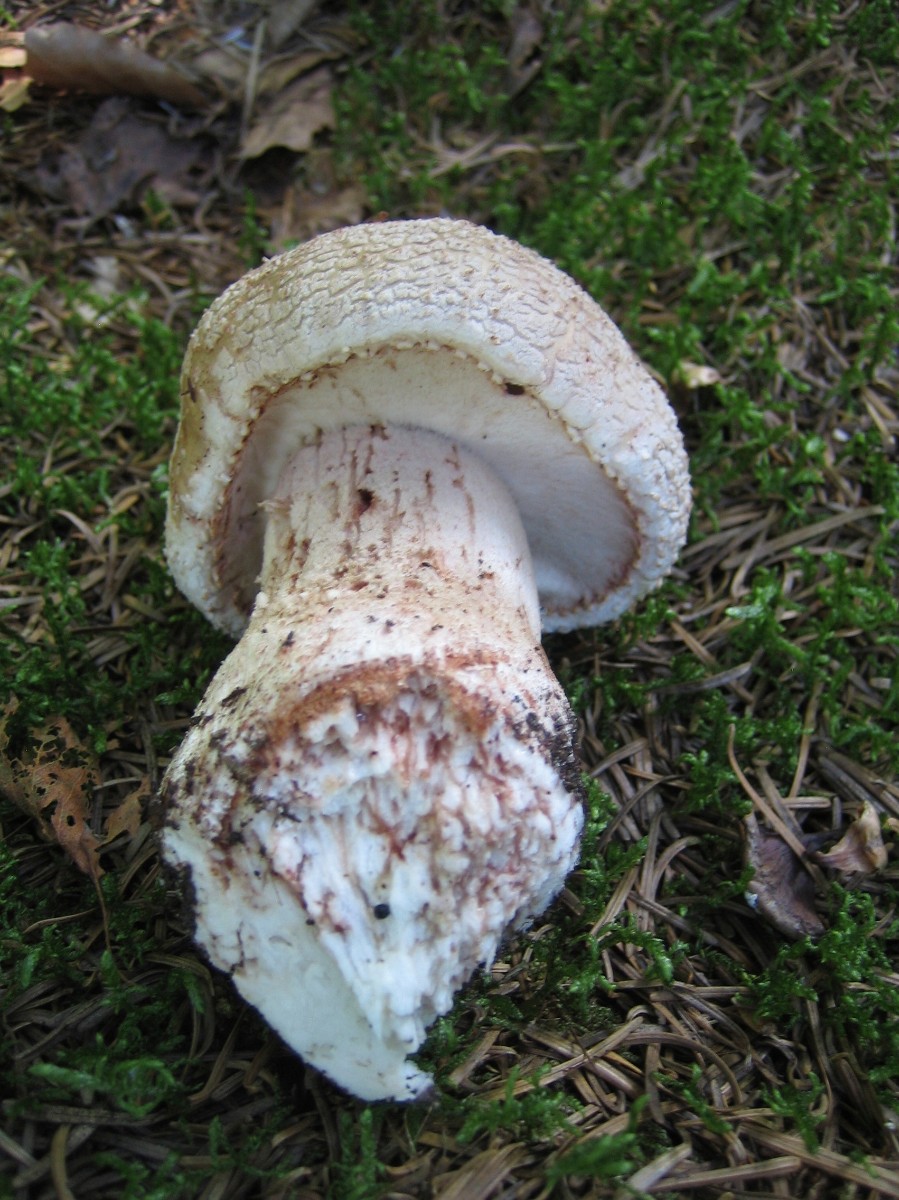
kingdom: Fungi
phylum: Basidiomycota
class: Agaricomycetes
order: Agaricales
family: Amanitaceae
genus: Amanita
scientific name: Amanita rubescens
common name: rødmende fluesvamp
